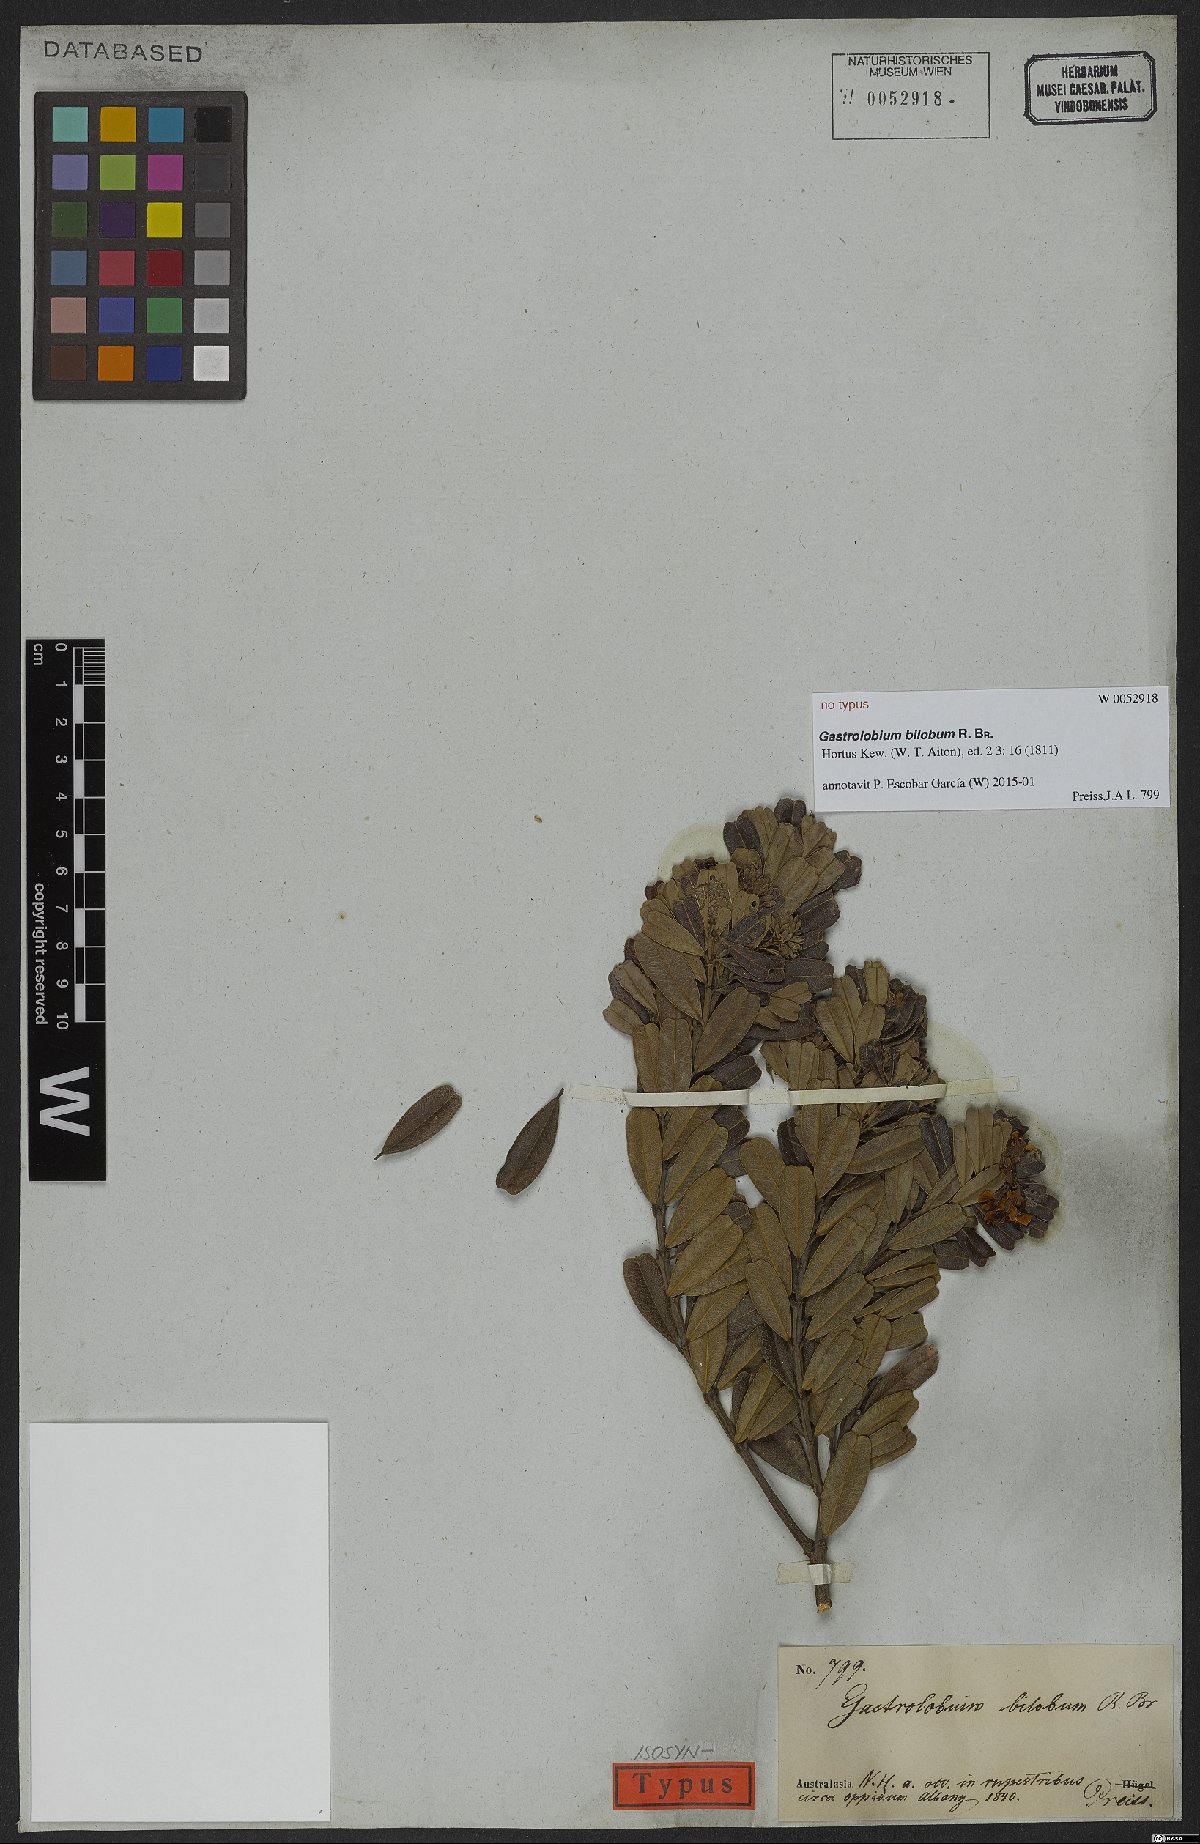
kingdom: Plantae
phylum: Tracheophyta
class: Magnoliopsida
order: Fabales
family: Fabaceae
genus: Gastrolobium
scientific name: Gastrolobium bilobum
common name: Heart-leaf poisonbush
